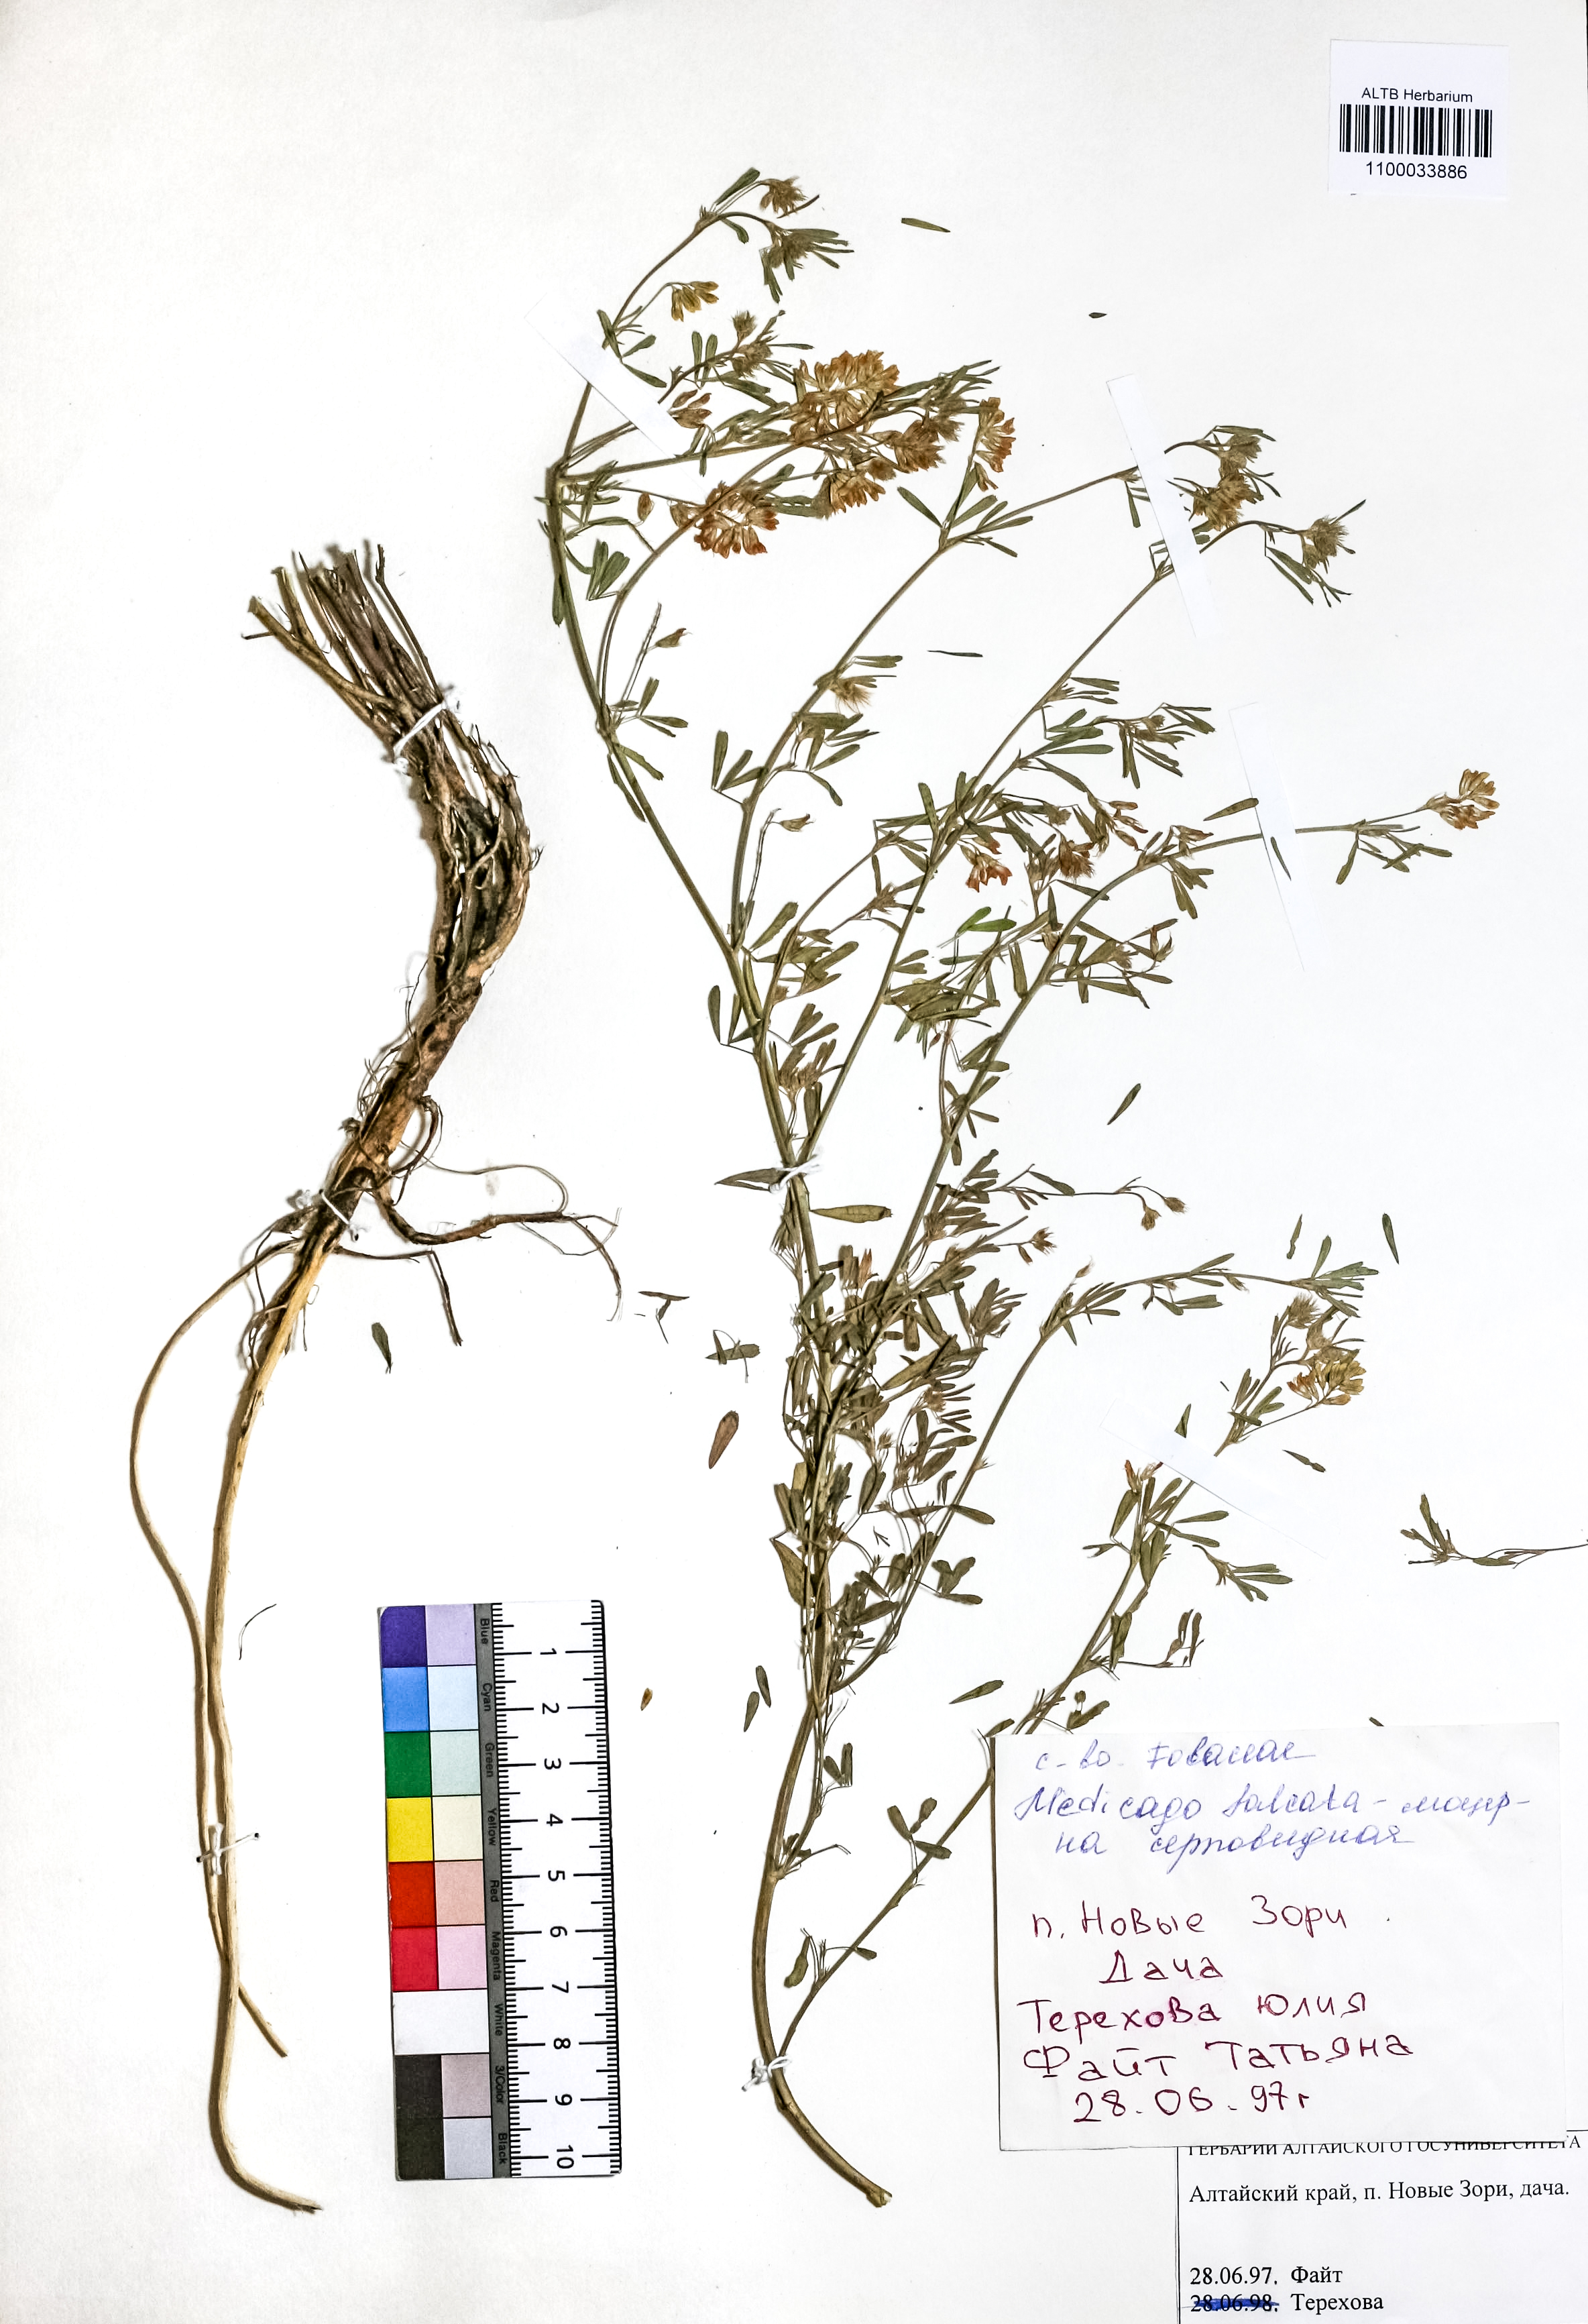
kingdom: Plantae
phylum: Tracheophyta
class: Magnoliopsida
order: Fabales
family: Fabaceae
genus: Medicago
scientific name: Medicago falcata
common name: Sickle medick
